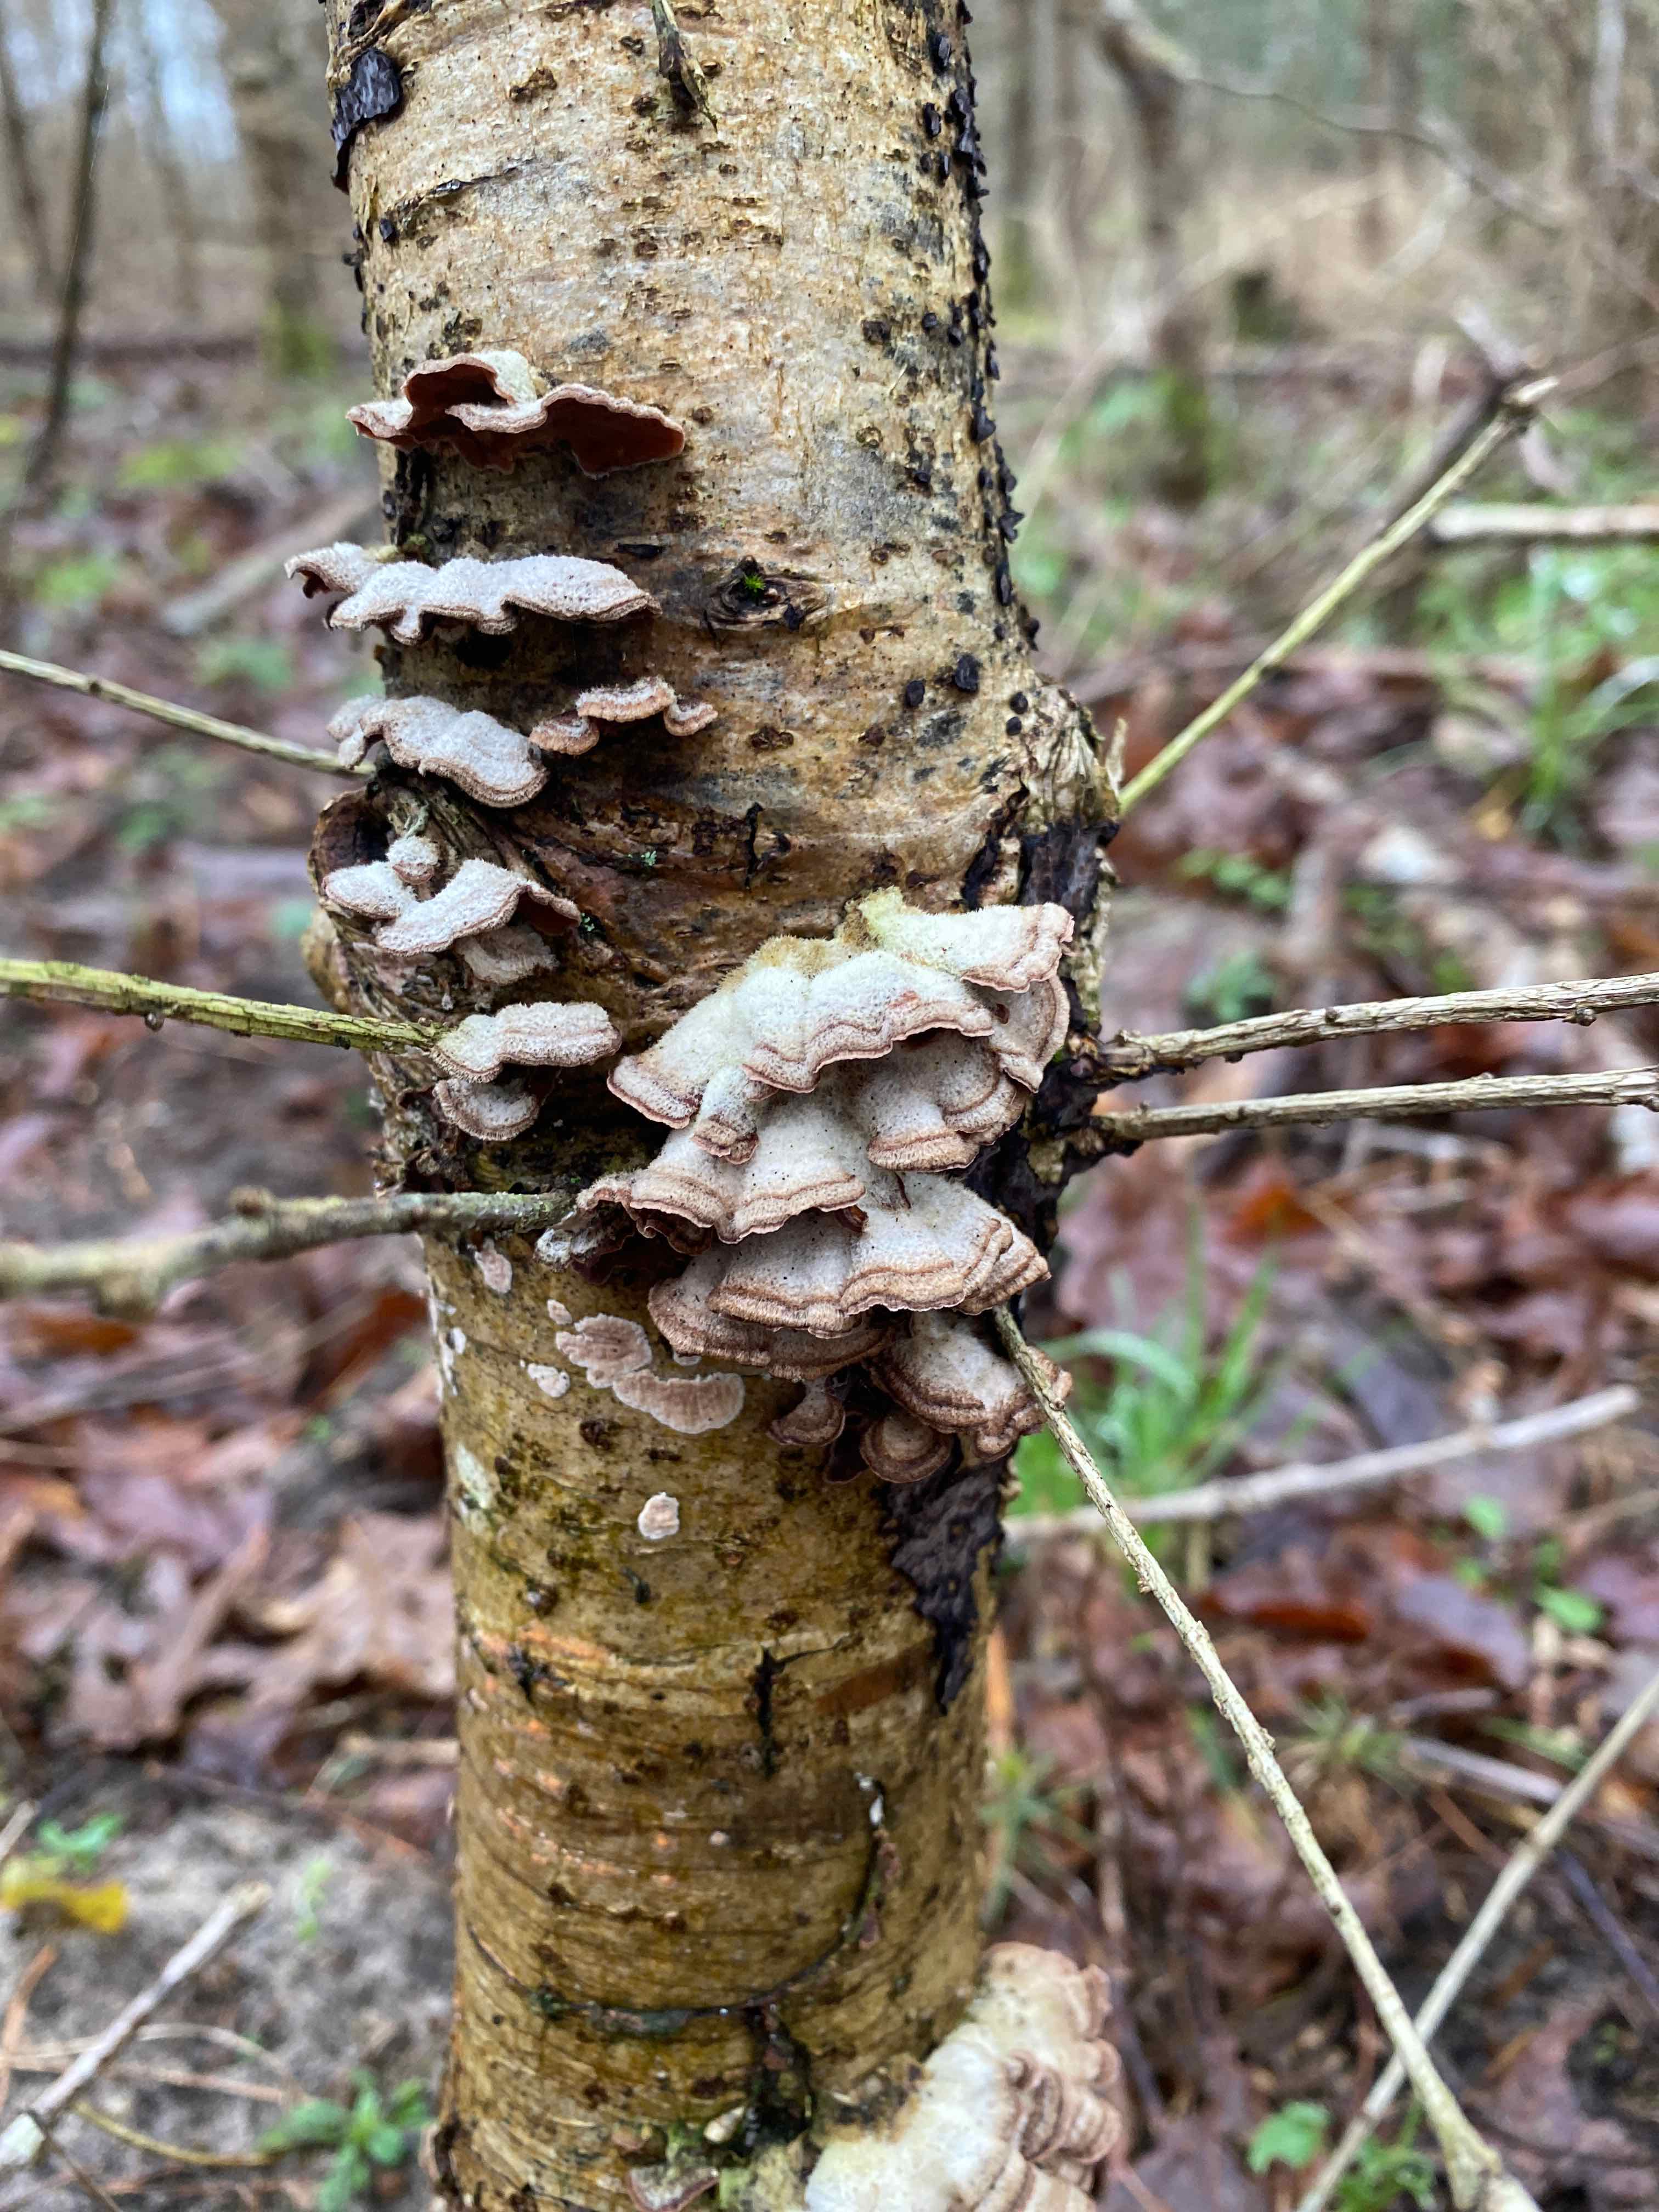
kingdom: Fungi
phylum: Basidiomycota
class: Agaricomycetes
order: Russulales
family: Stereaceae
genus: Stereum
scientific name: Stereum hirsutum
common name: håret lædersvamp
